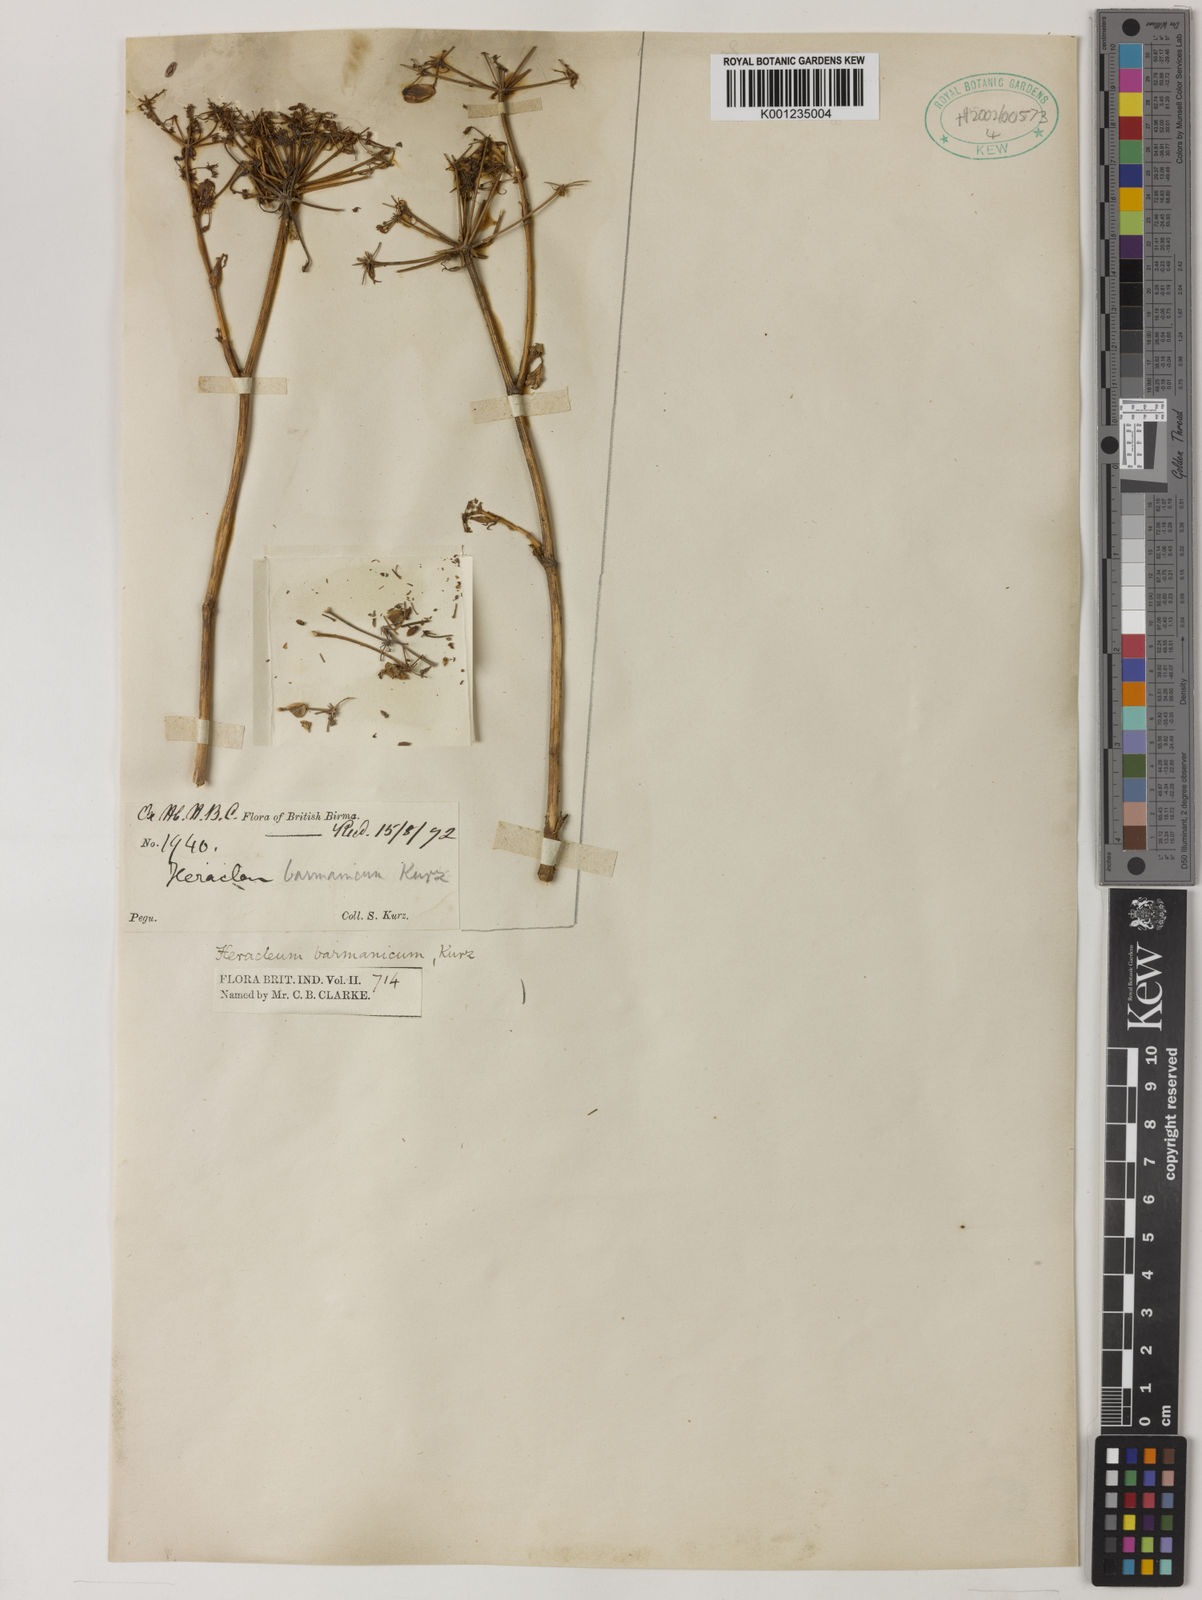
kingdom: Plantae
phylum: Tracheophyta
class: Magnoliopsida
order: Apiales
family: Apiaceae
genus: Tetrataenium
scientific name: Tetrataenium birmanicum
